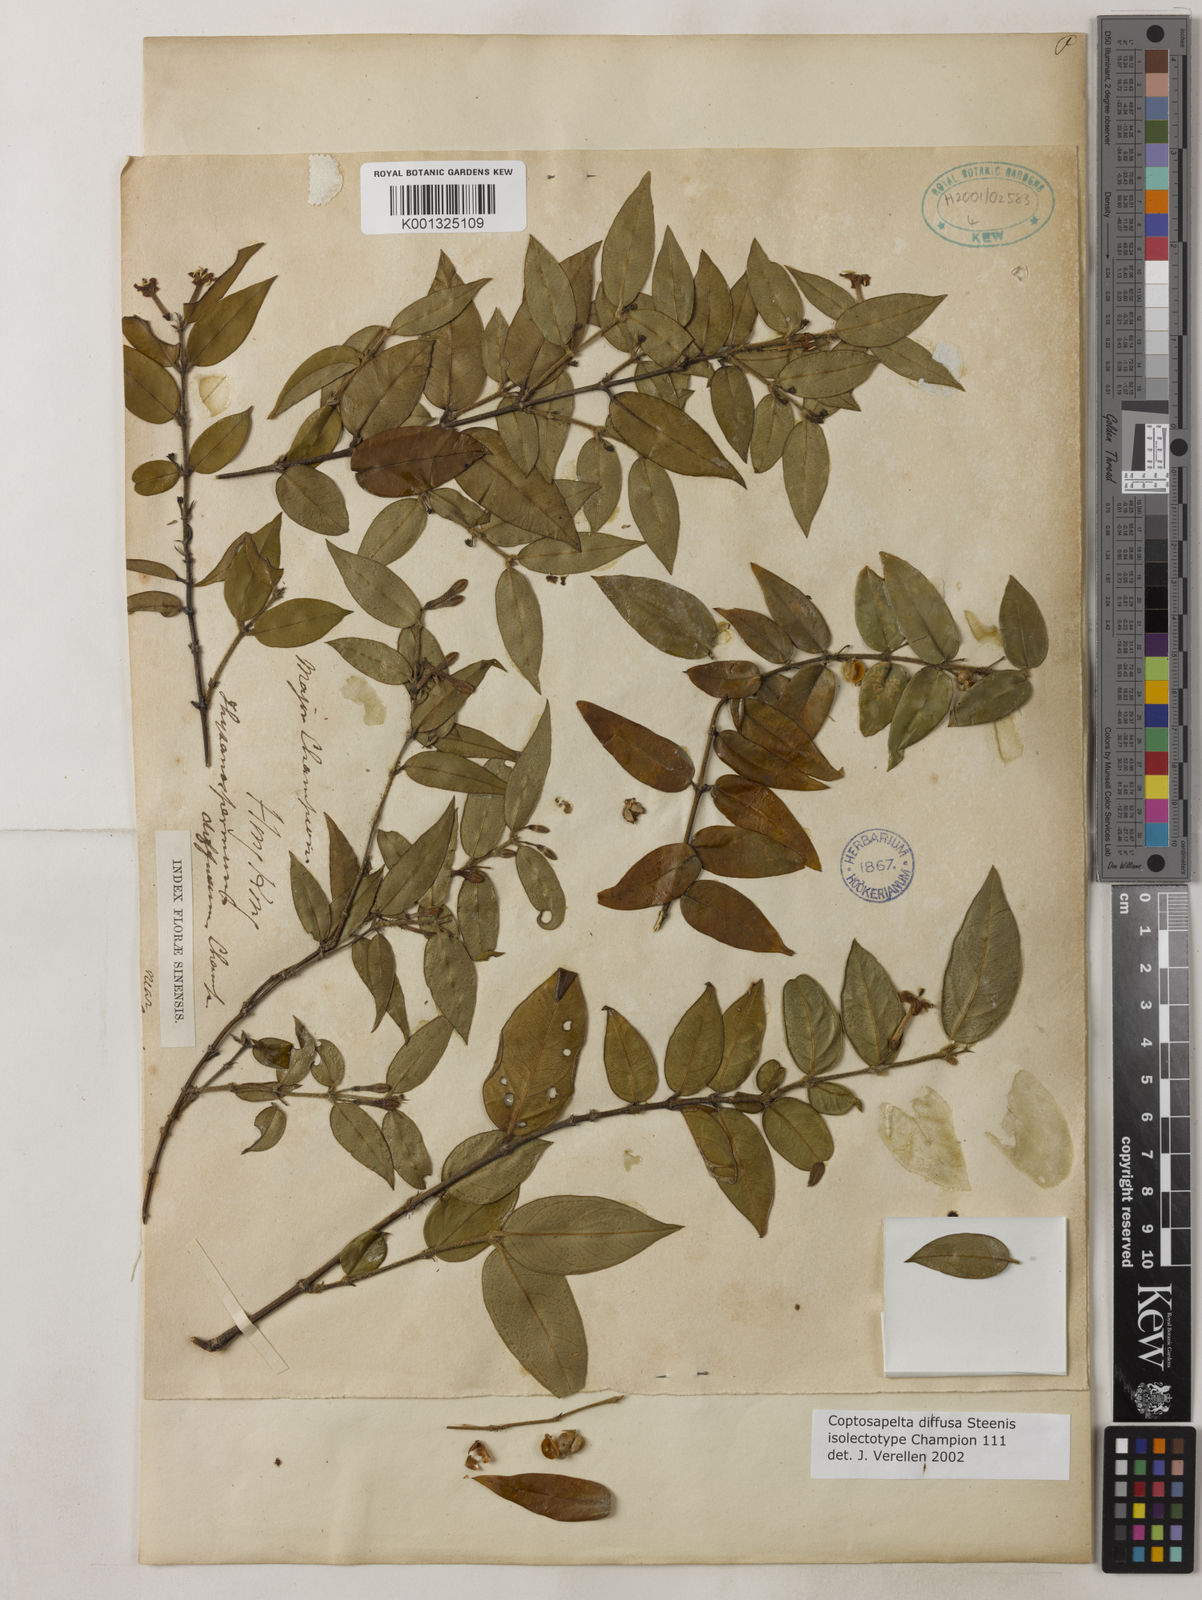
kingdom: Plantae
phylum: Tracheophyta
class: Magnoliopsida
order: Gentianales
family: Rubiaceae
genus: Coptosapelta
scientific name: Coptosapelta diffusa
